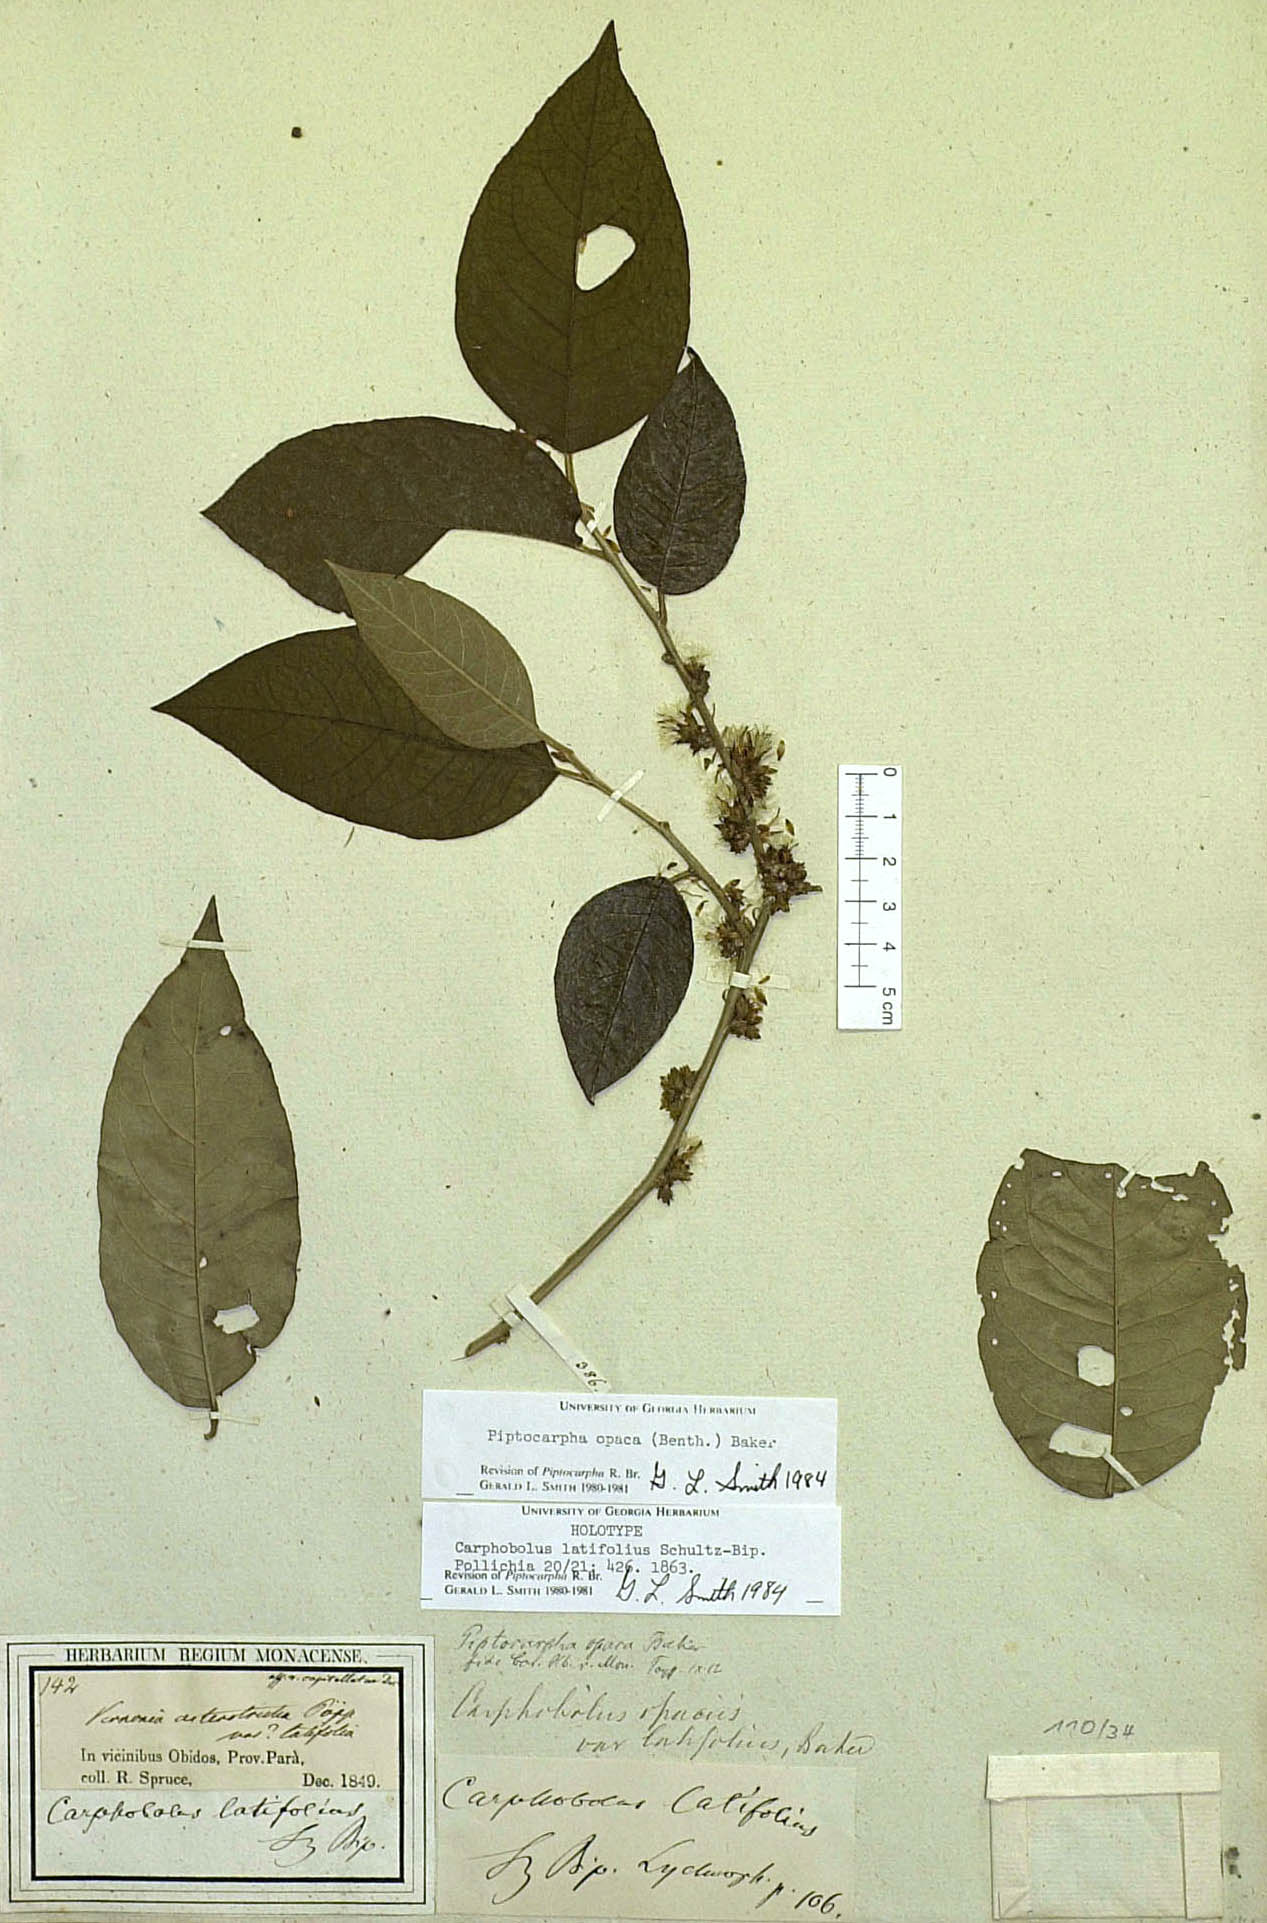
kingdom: Plantae
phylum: Tracheophyta
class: Magnoliopsida
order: Asterales
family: Asteraceae
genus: Piptocarpha
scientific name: Piptocarpha opaca
